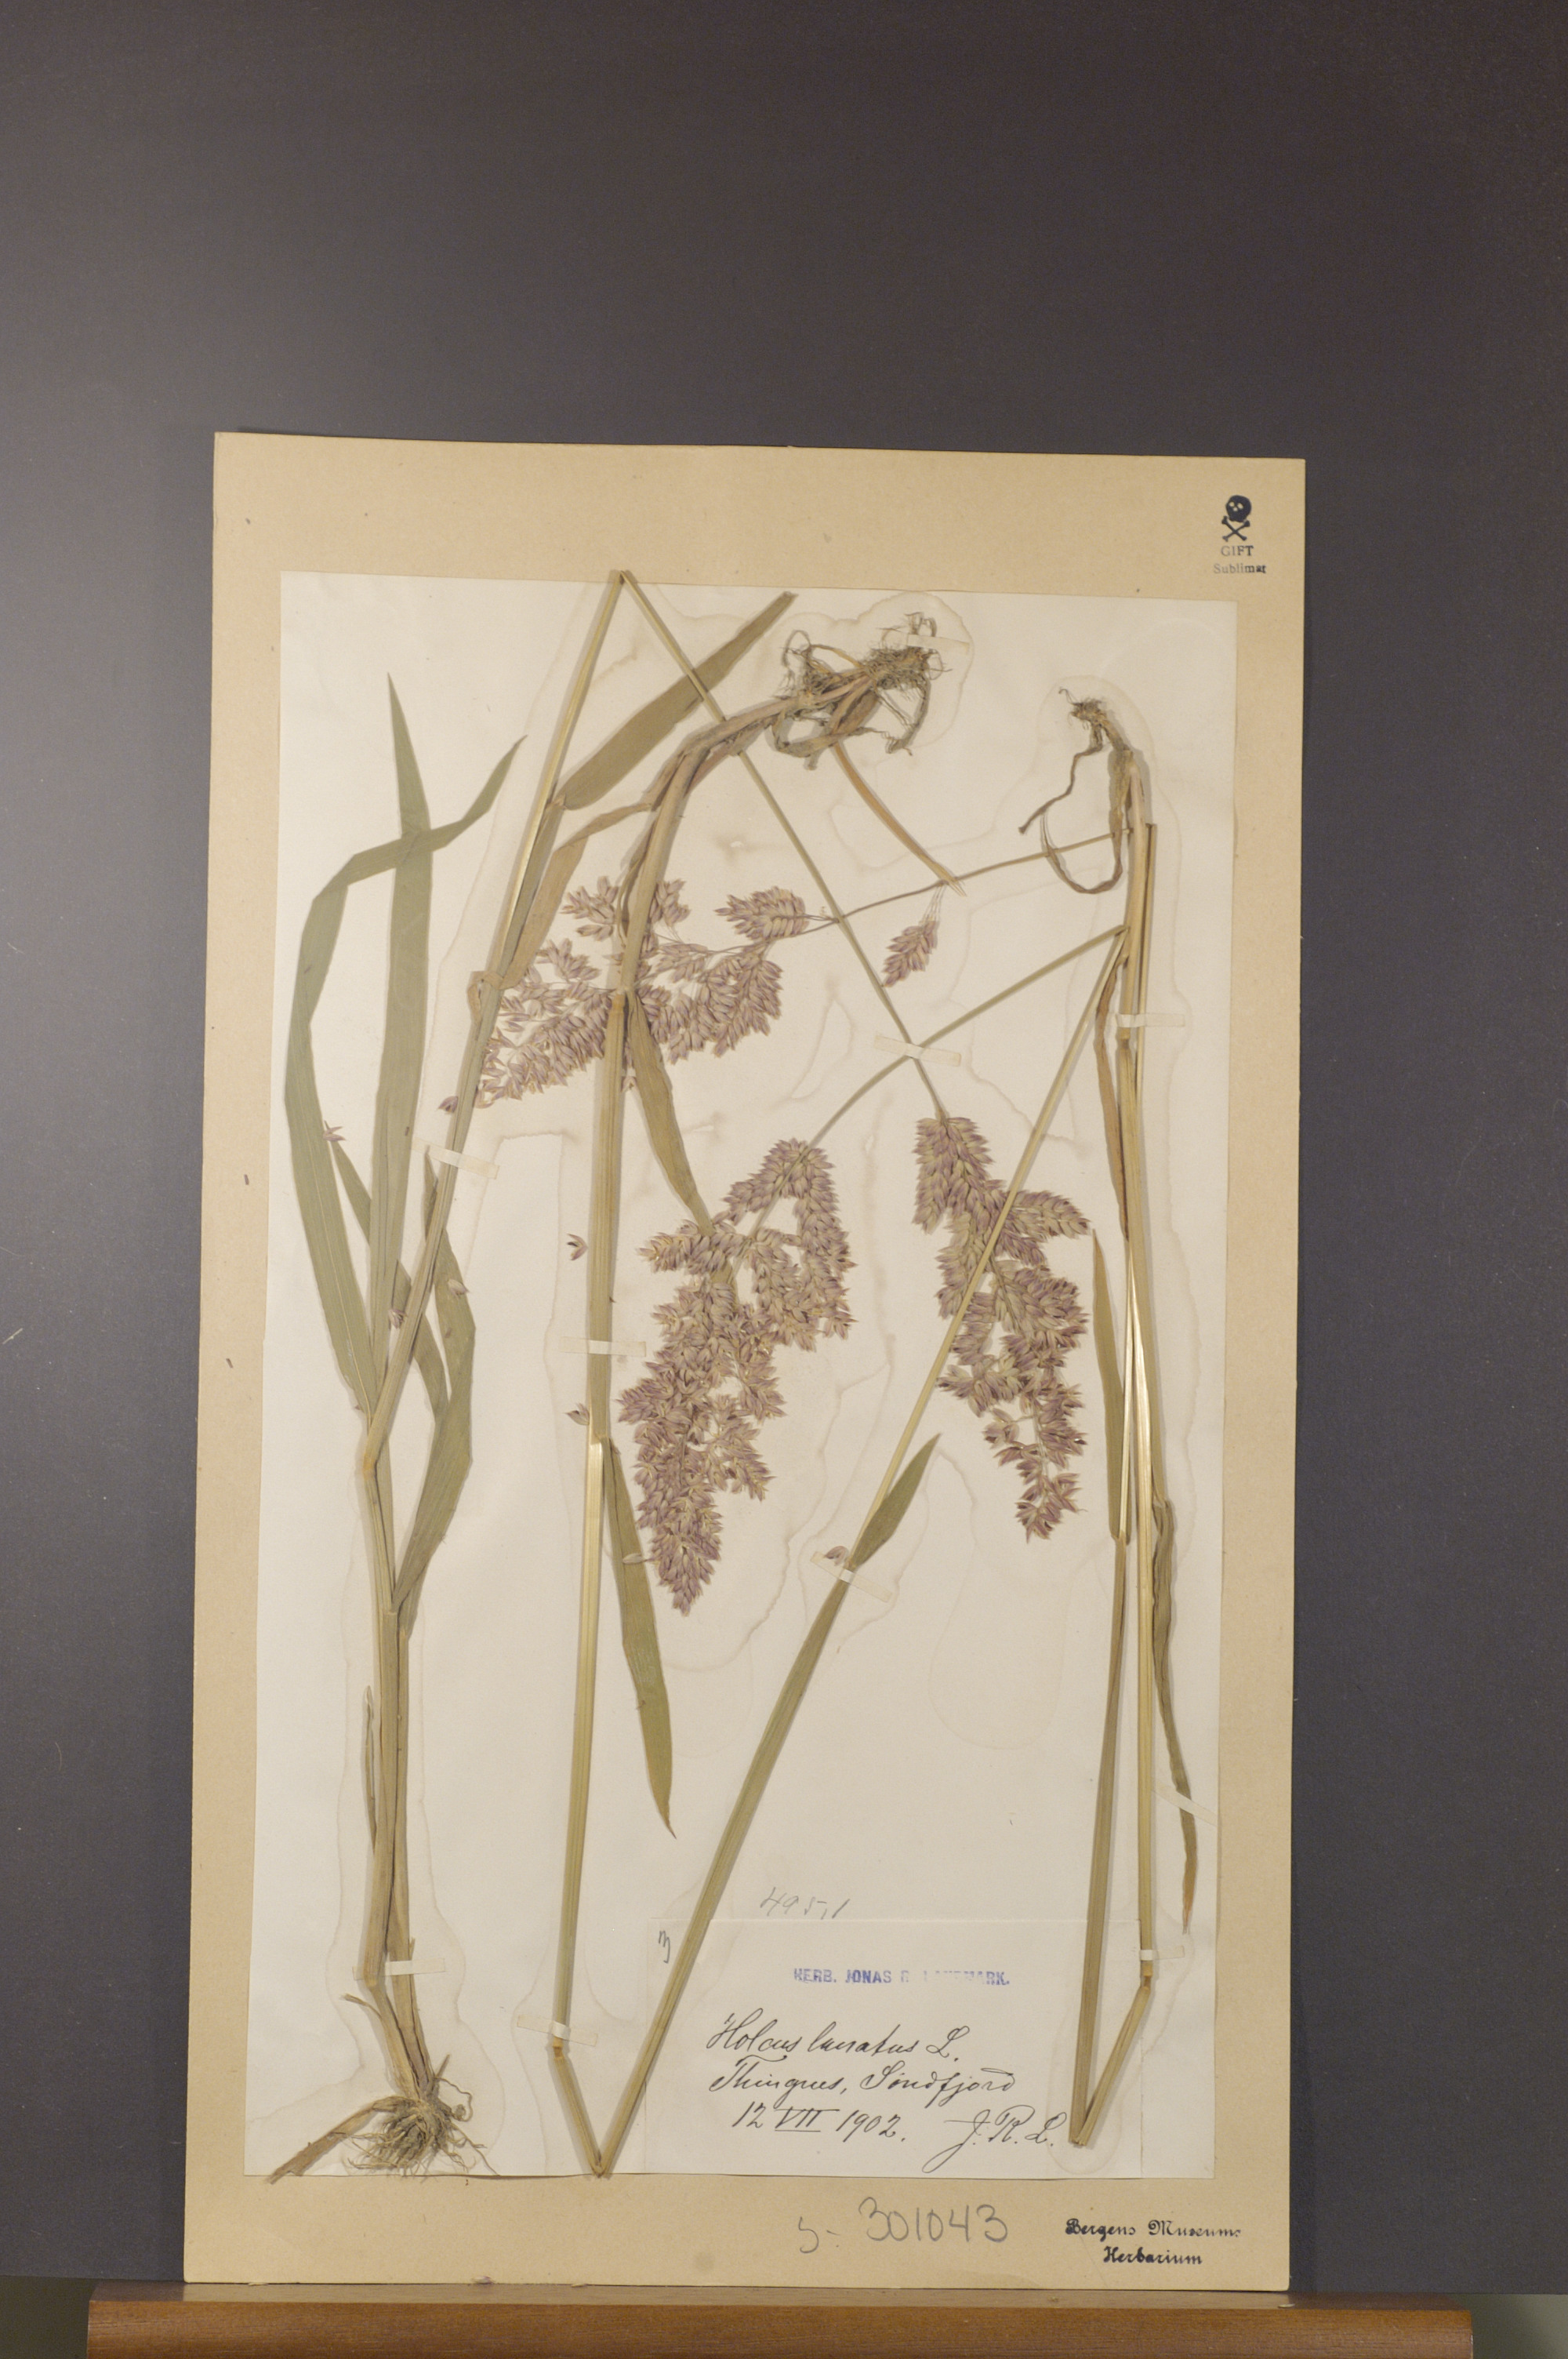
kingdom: Plantae
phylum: Tracheophyta
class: Liliopsida
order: Poales
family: Poaceae
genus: Holcus
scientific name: Holcus lanatus
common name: Yorkshire-fog
